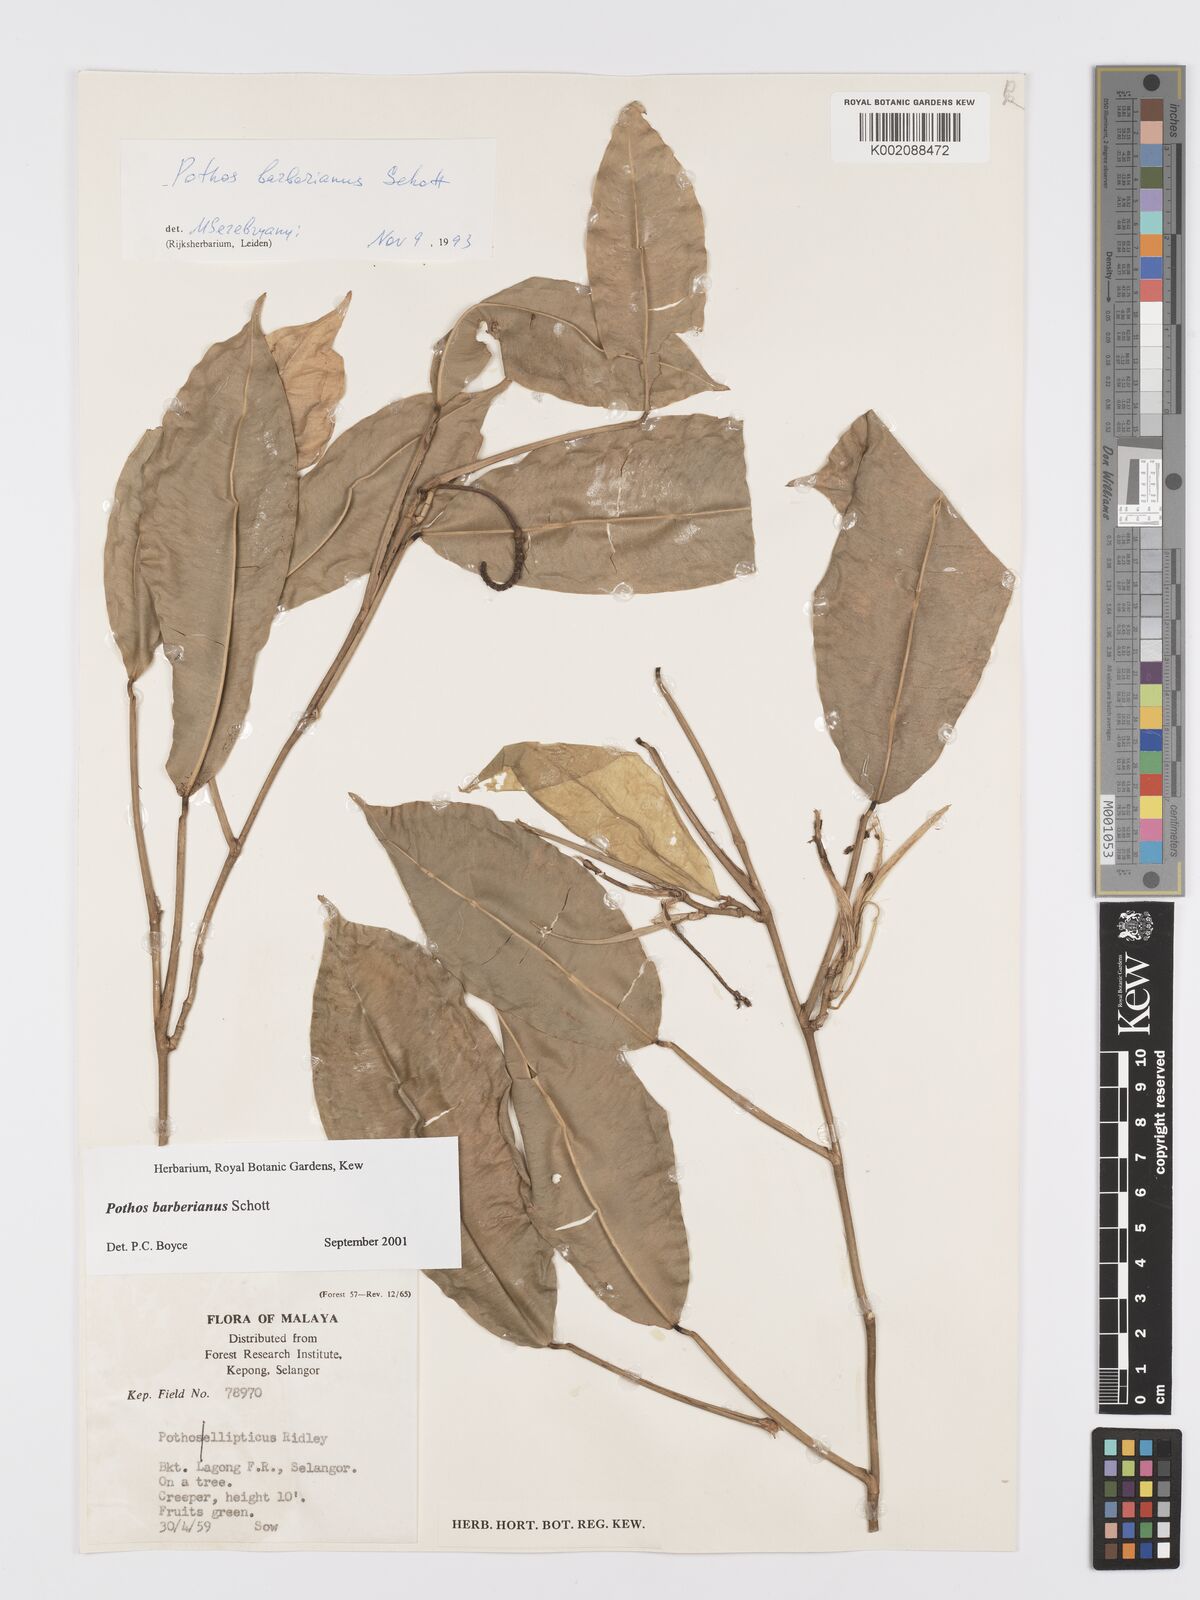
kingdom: Plantae
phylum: Tracheophyta
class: Liliopsida
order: Alismatales
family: Araceae
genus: Pothos
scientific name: Pothos barberianus
